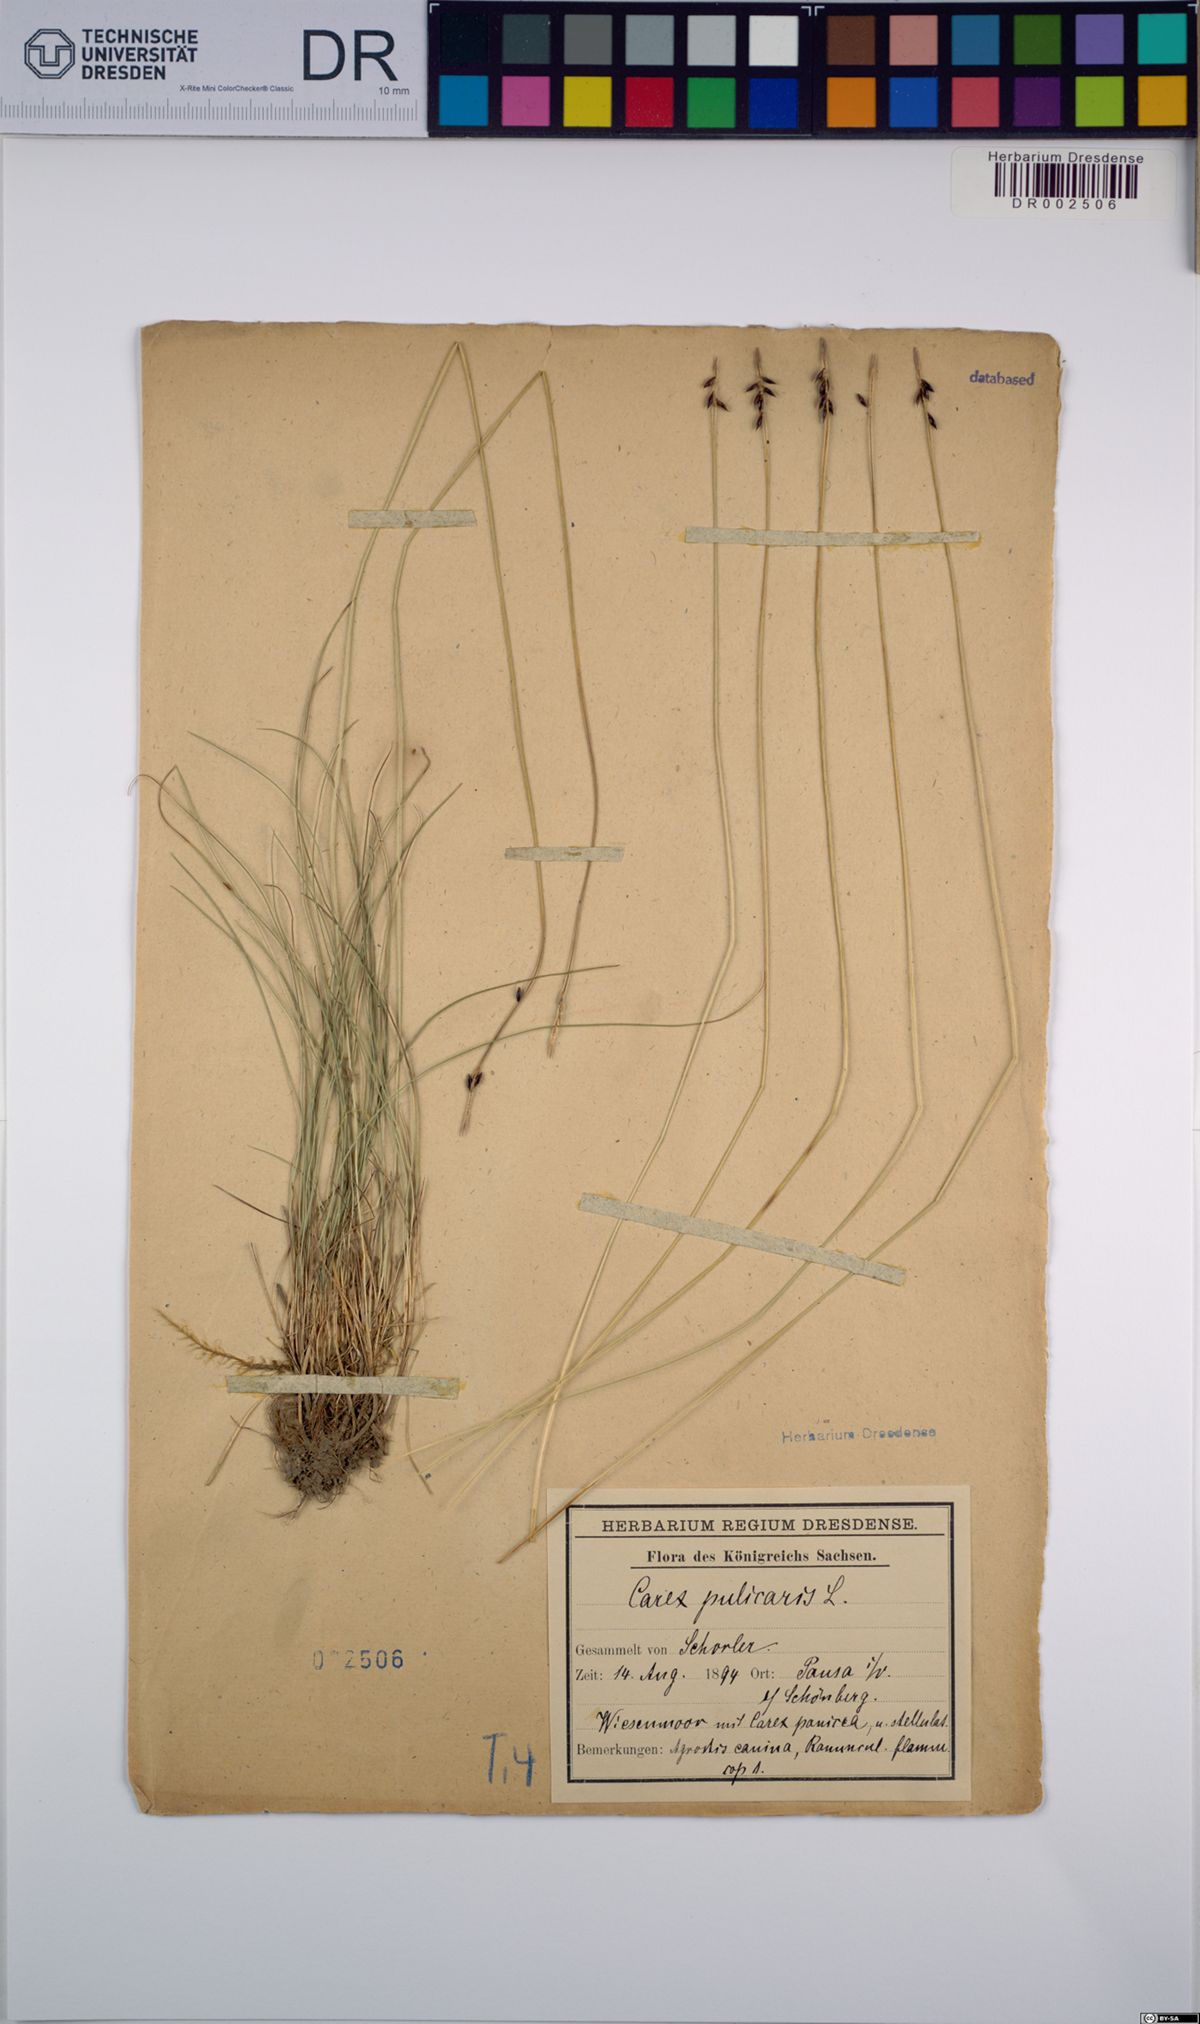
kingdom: Plantae
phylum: Tracheophyta
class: Liliopsida
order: Poales
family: Cyperaceae
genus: Carex
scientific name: Carex pulicaris
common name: Flea sedge
